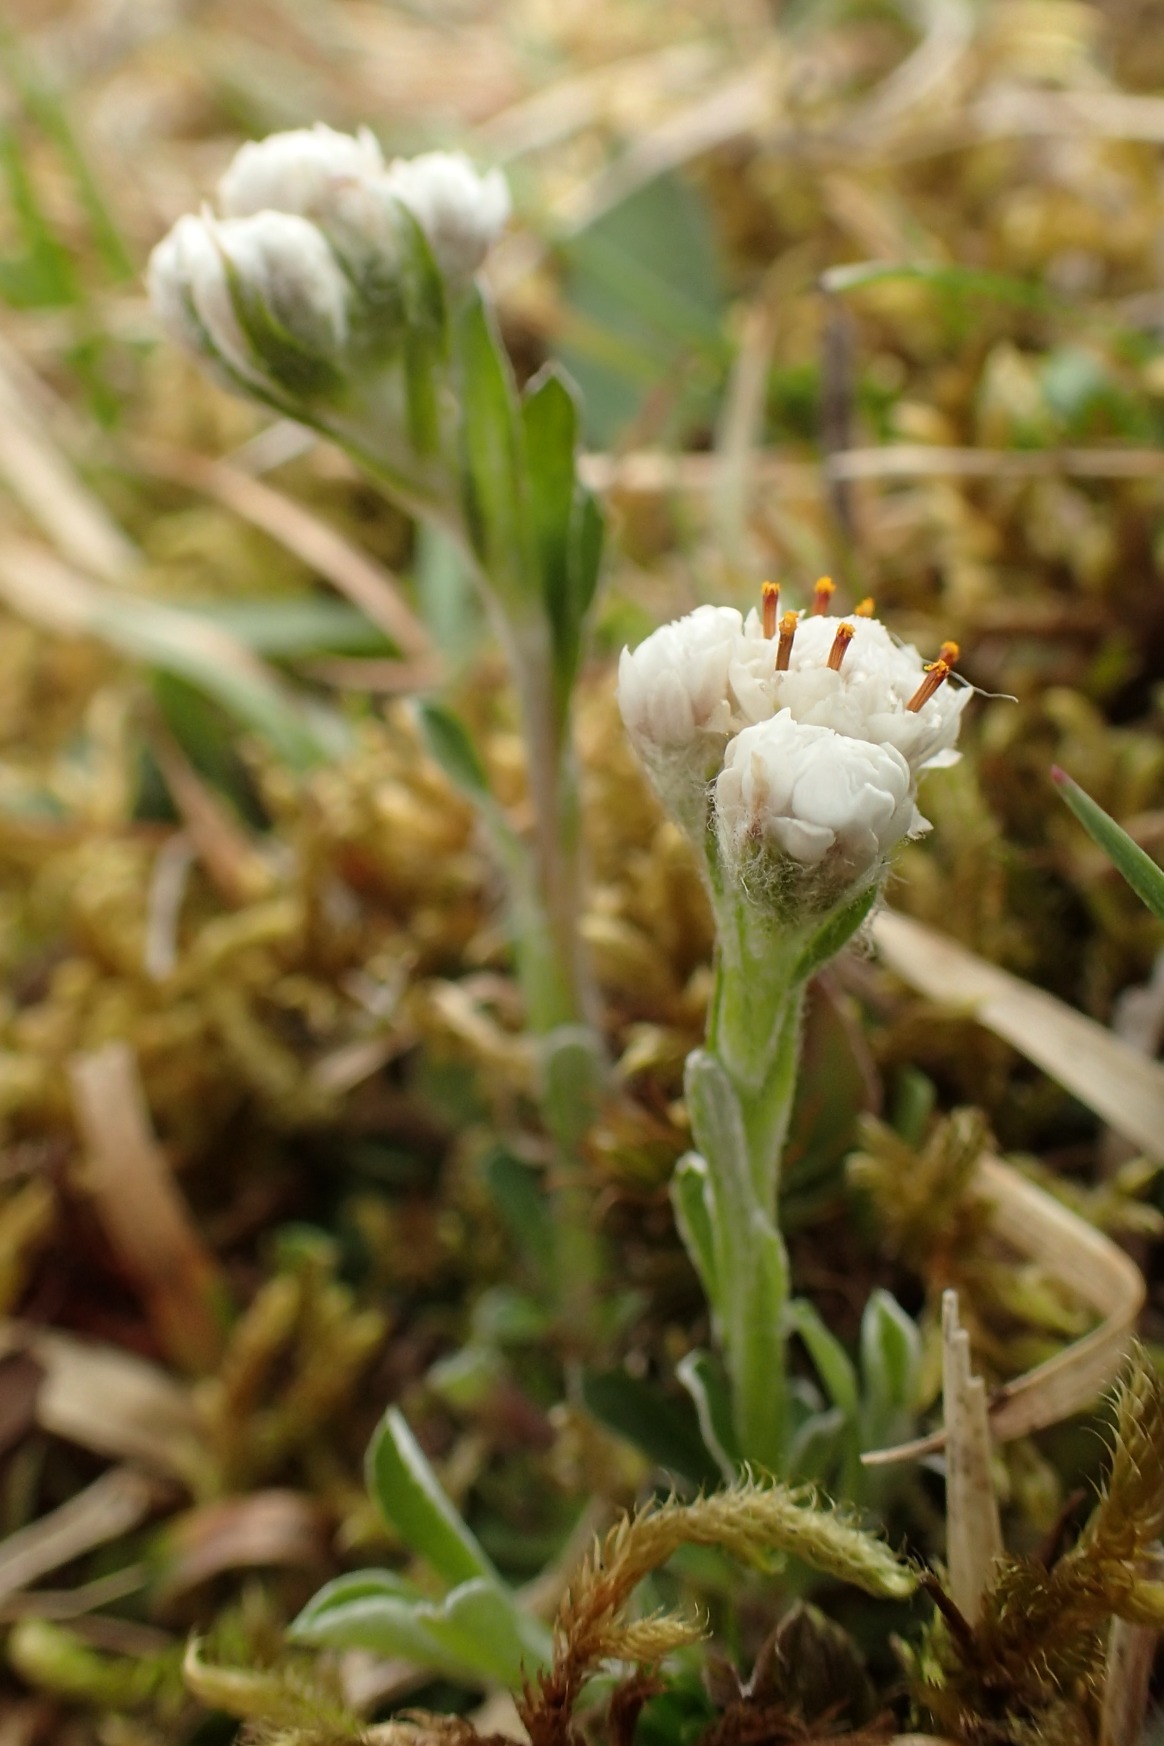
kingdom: Plantae
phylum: Tracheophyta
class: Magnoliopsida
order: Asterales
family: Asteraceae
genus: Antennaria
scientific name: Antennaria dioica
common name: Kattefod
